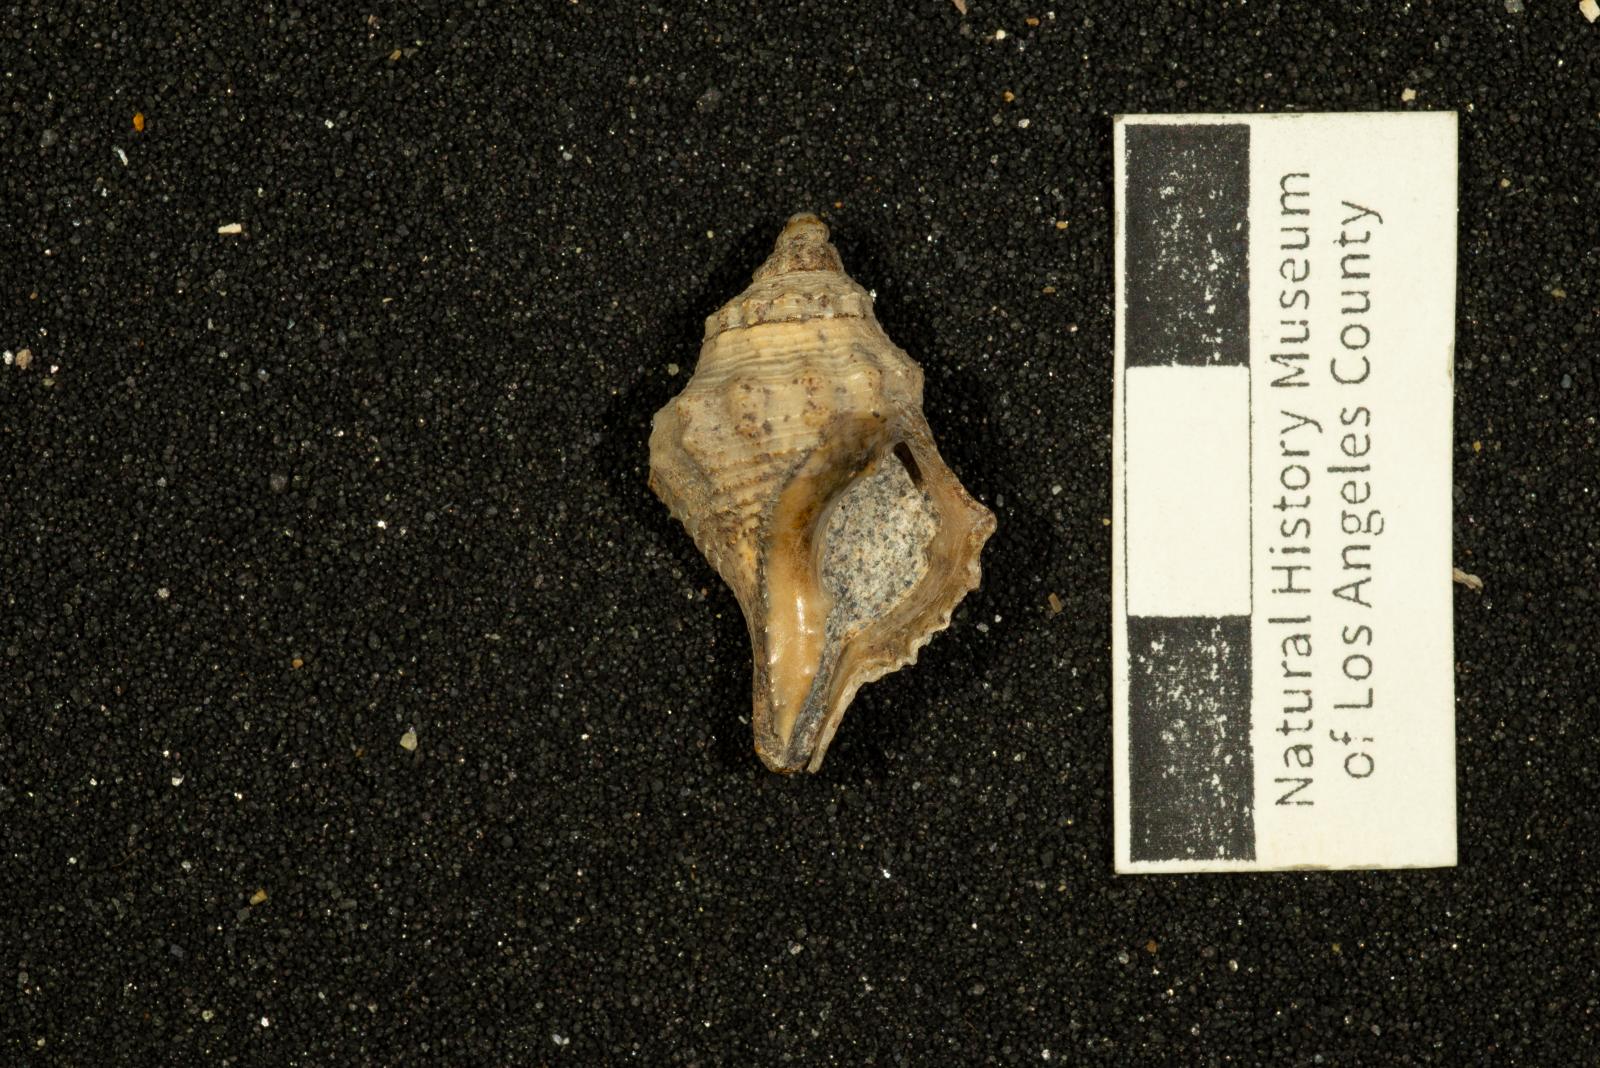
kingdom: Animalia
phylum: Mollusca
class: Gastropoda
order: Neogastropoda
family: Perissityidae
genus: Perissitys
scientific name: Perissitys Sistrum cretaceum
